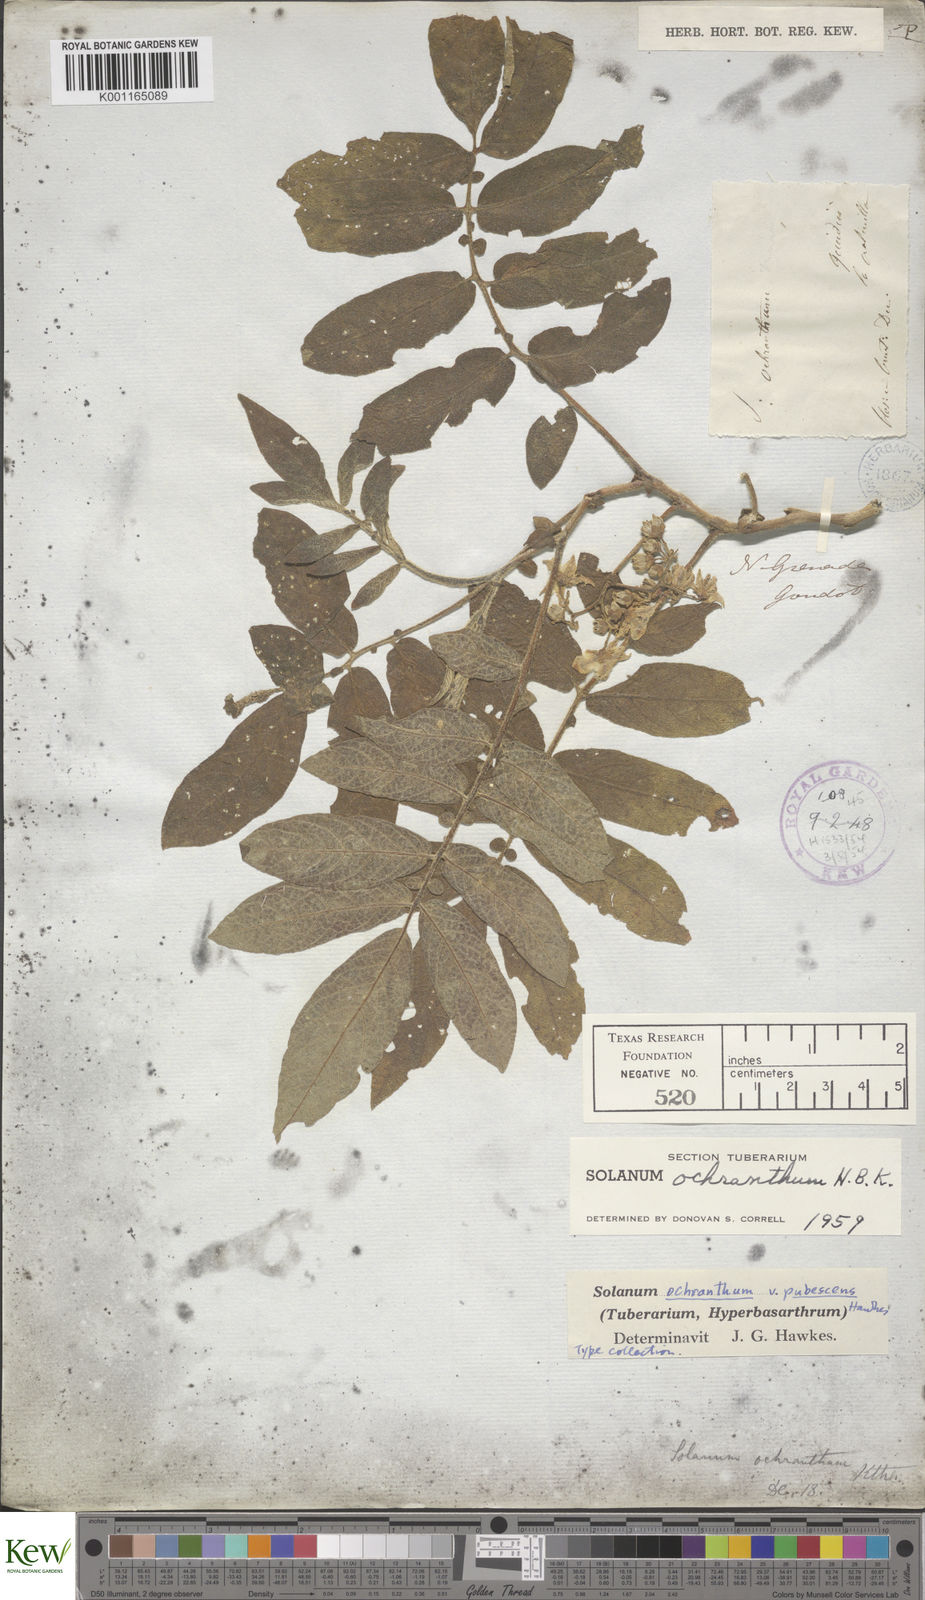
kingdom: Plantae
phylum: Tracheophyta
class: Magnoliopsida
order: Solanales
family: Solanaceae
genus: Solanum
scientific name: Solanum ochranthum
